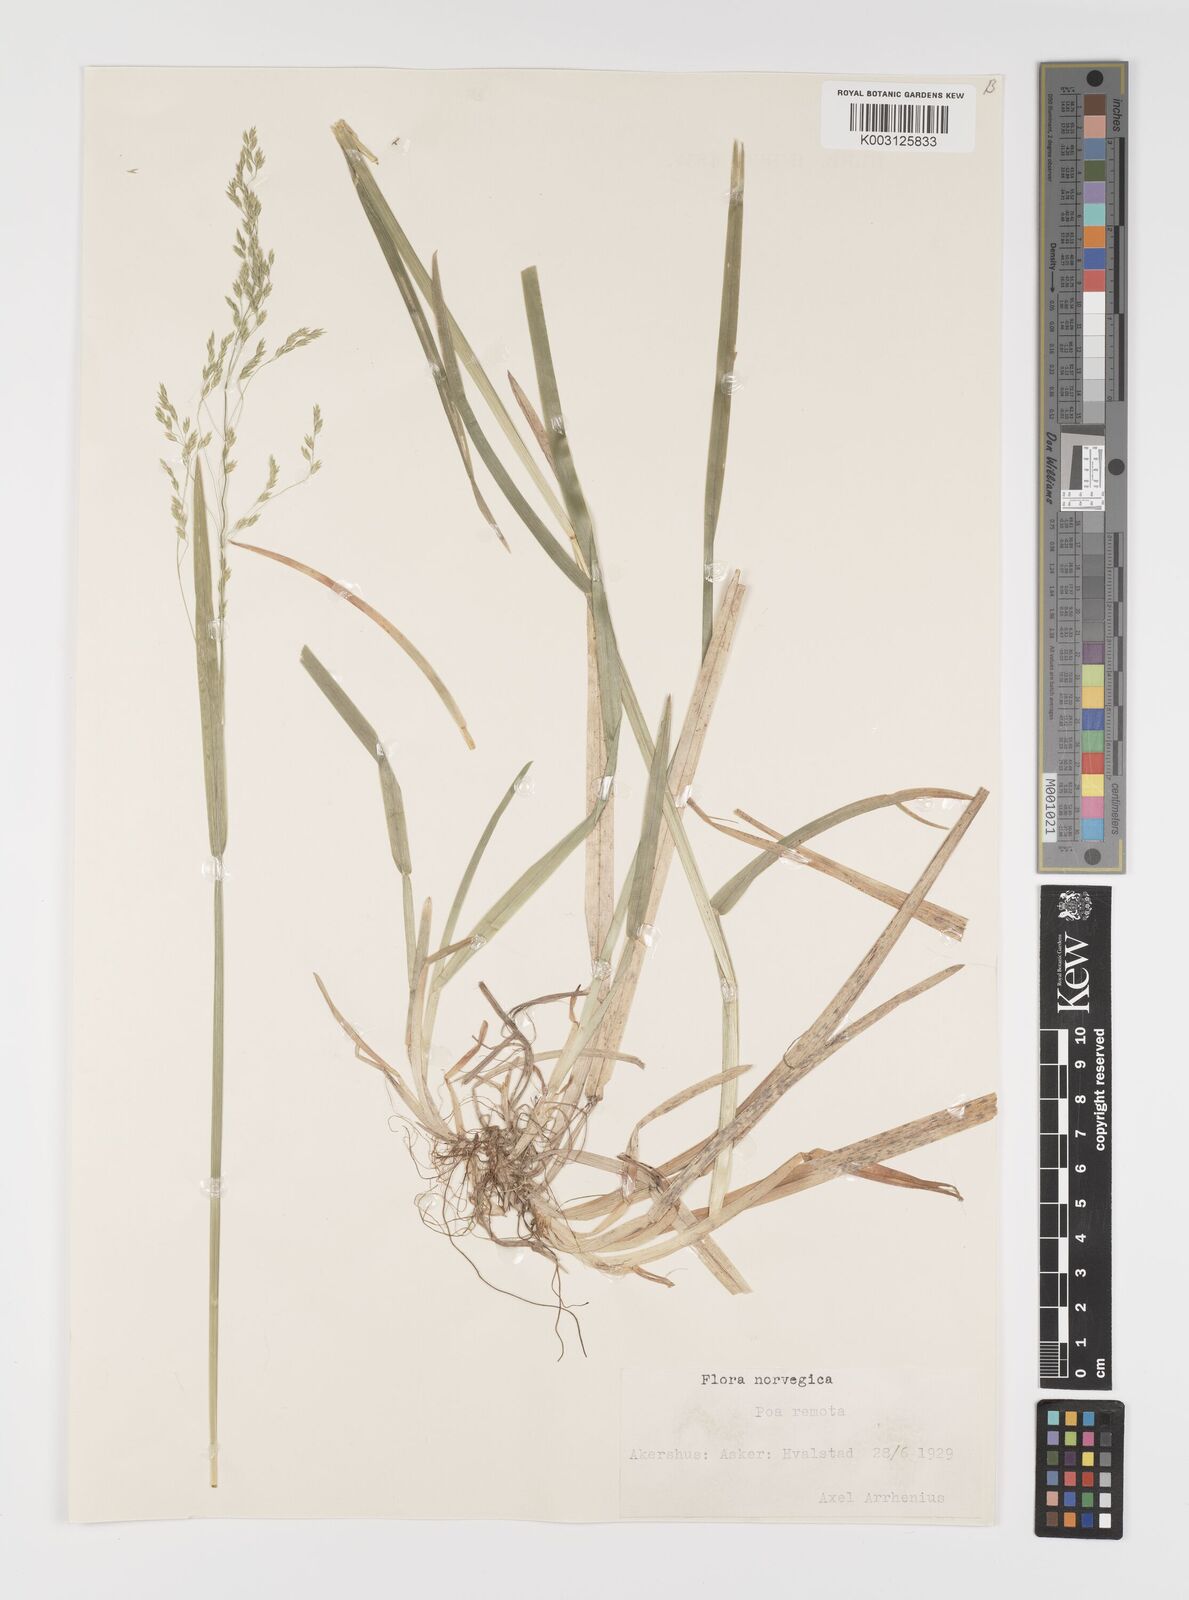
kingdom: Plantae
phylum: Tracheophyta
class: Liliopsida
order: Poales
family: Poaceae
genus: Poa
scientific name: Poa remota
